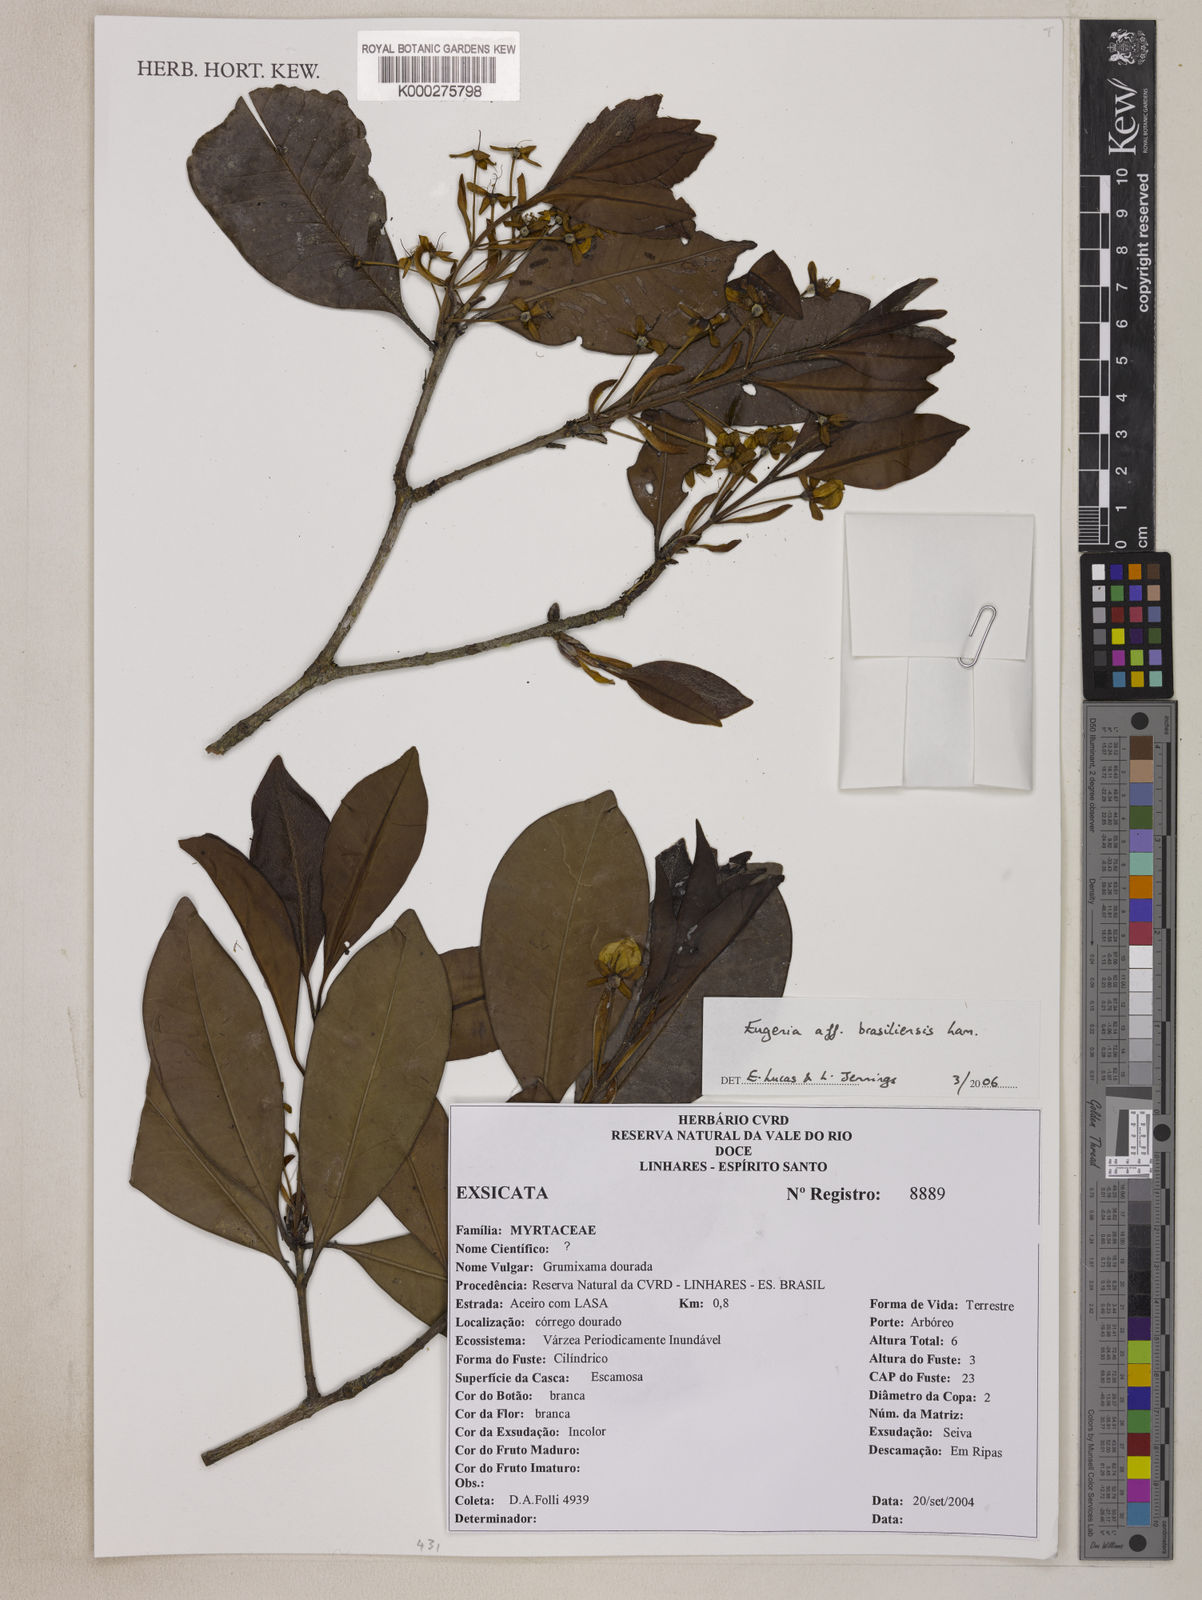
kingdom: Plantae
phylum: Tracheophyta
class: Magnoliopsida
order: Myrtales
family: Myrtaceae
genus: Eugenia
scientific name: Eugenia brasiliensis
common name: Grumichama
